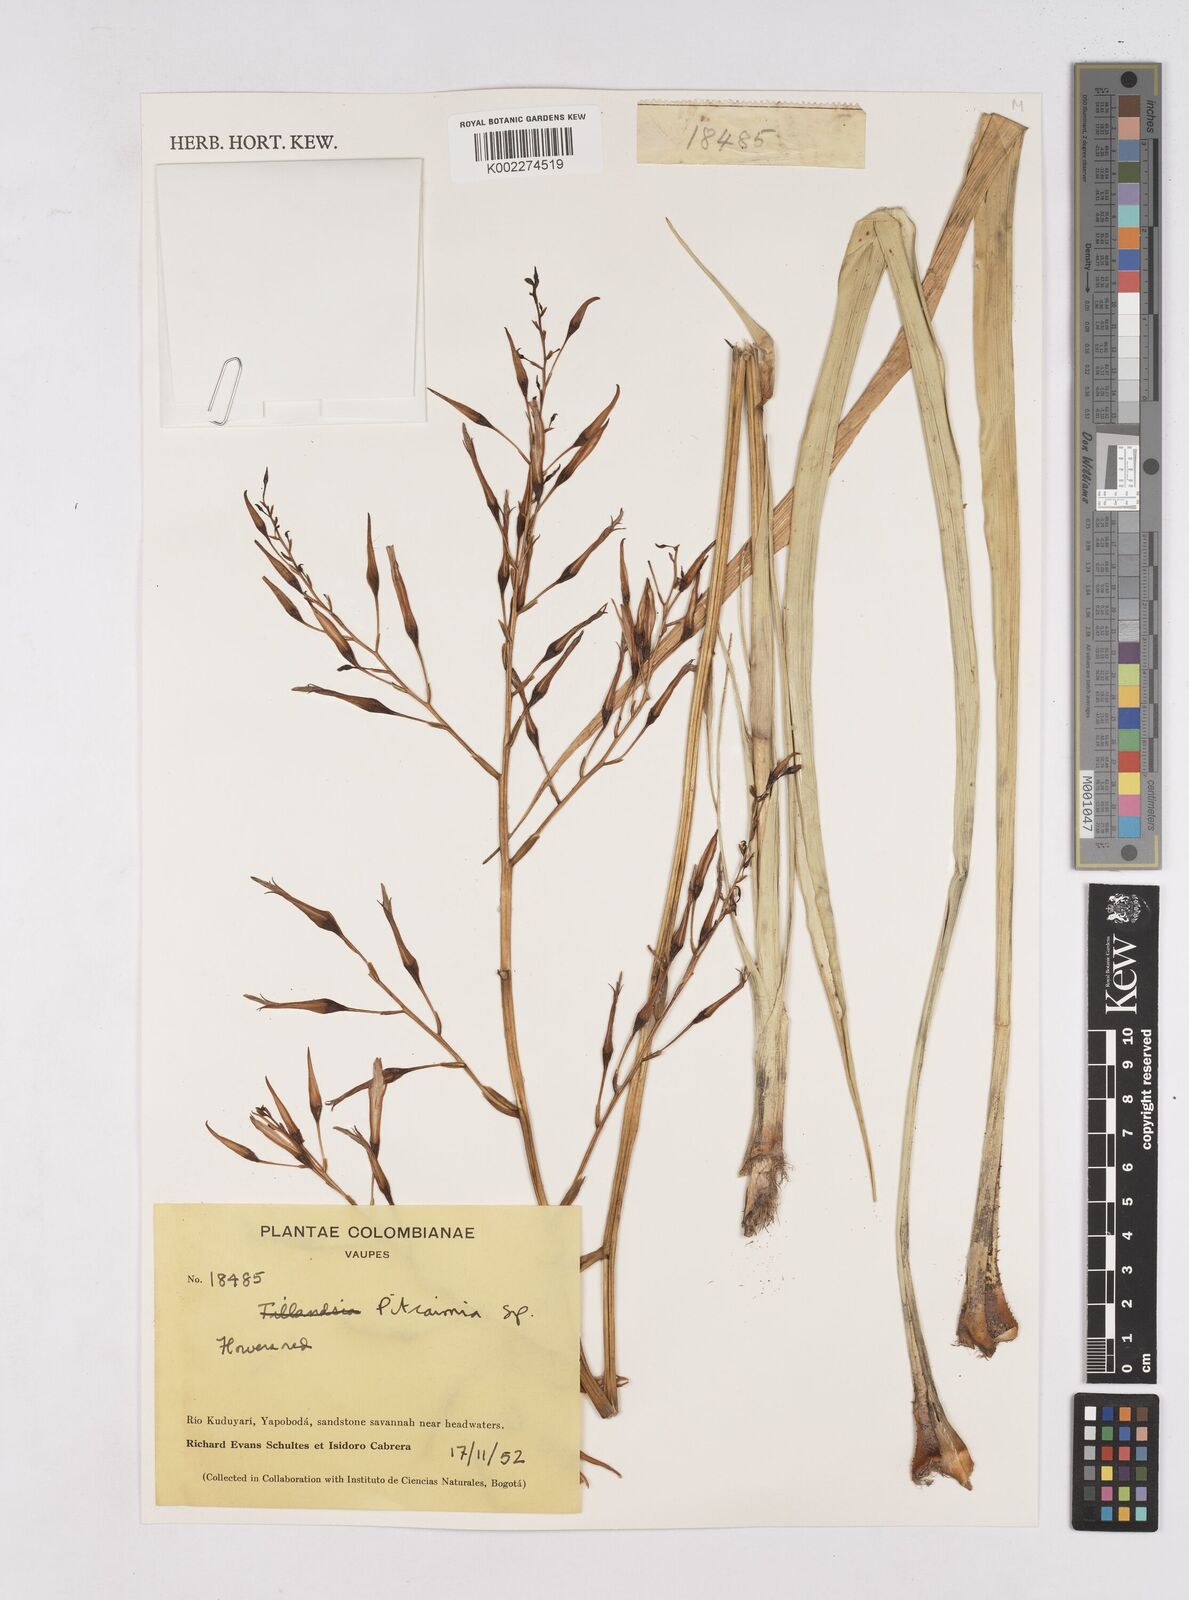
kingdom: Plantae
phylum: Tracheophyta
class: Liliopsida
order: Poales
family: Bromeliaceae
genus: Pitcairnia
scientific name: Pitcairnia
